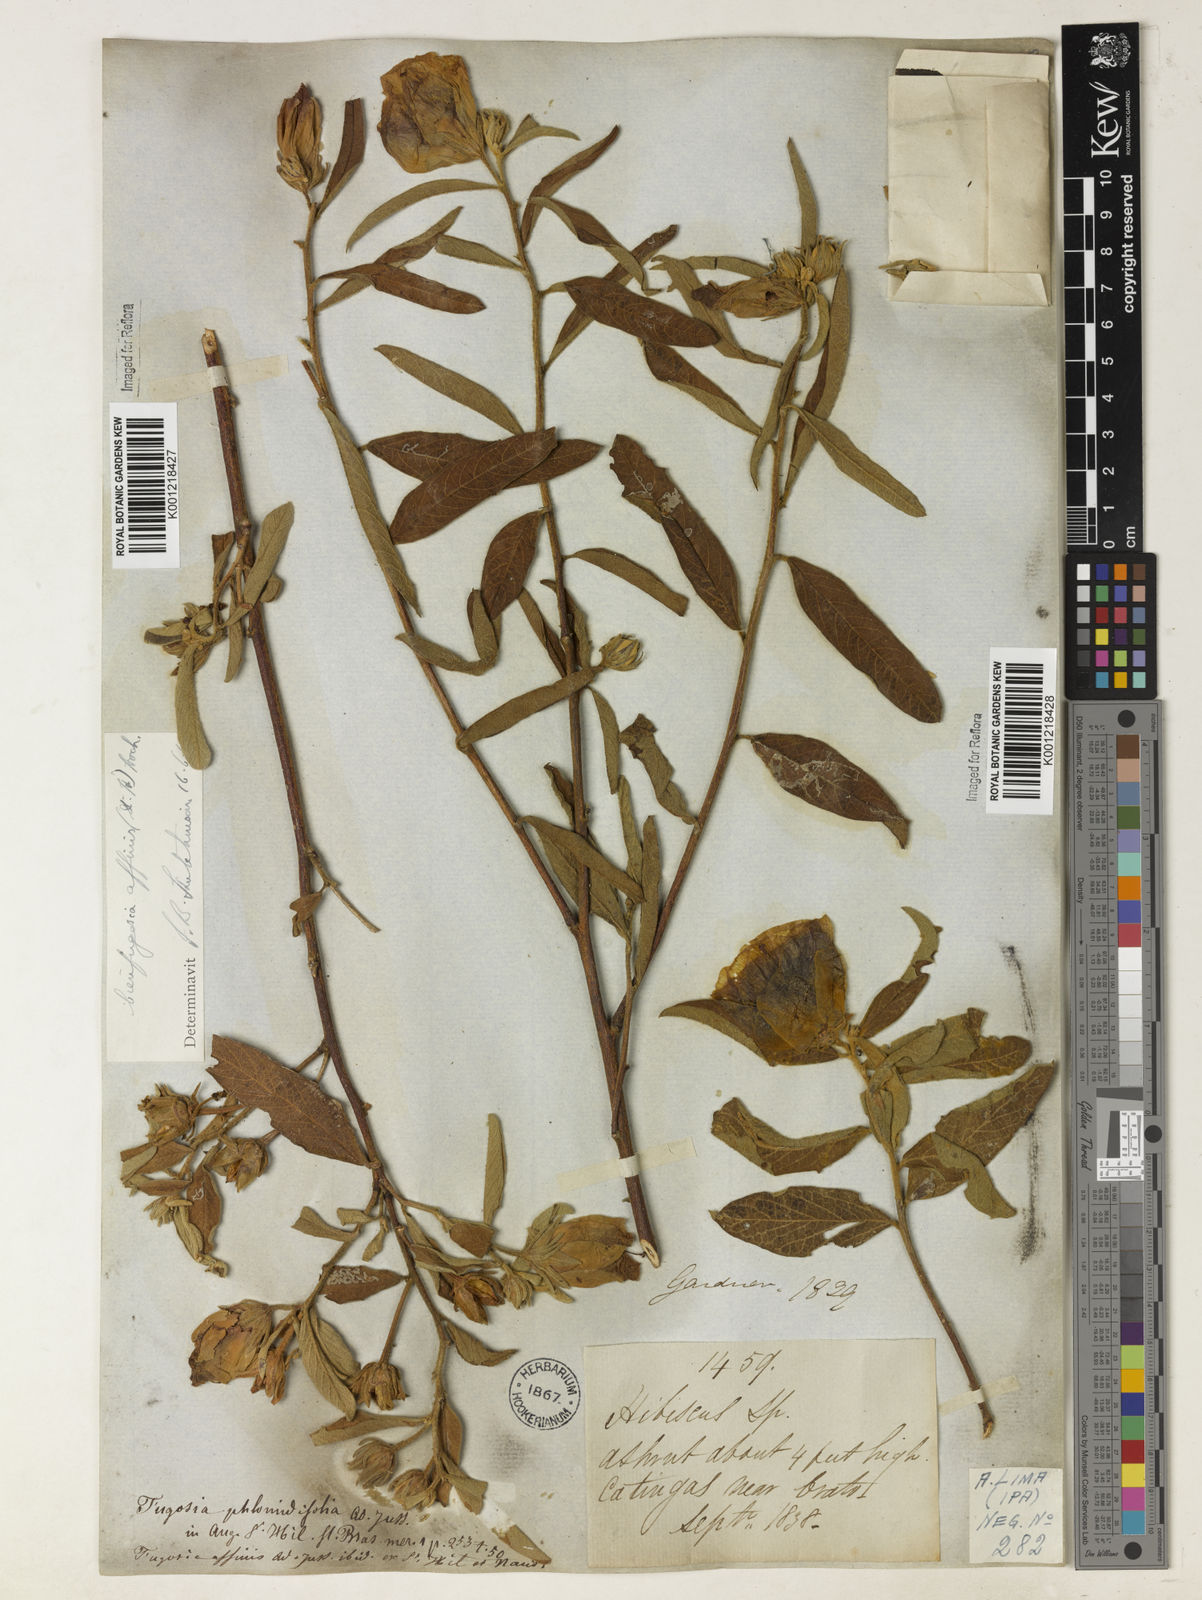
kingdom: Plantae
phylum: Tracheophyta
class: Magnoliopsida
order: Malvales
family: Malvaceae
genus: Cienfuegosia
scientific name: Cienfuegosia affinis
